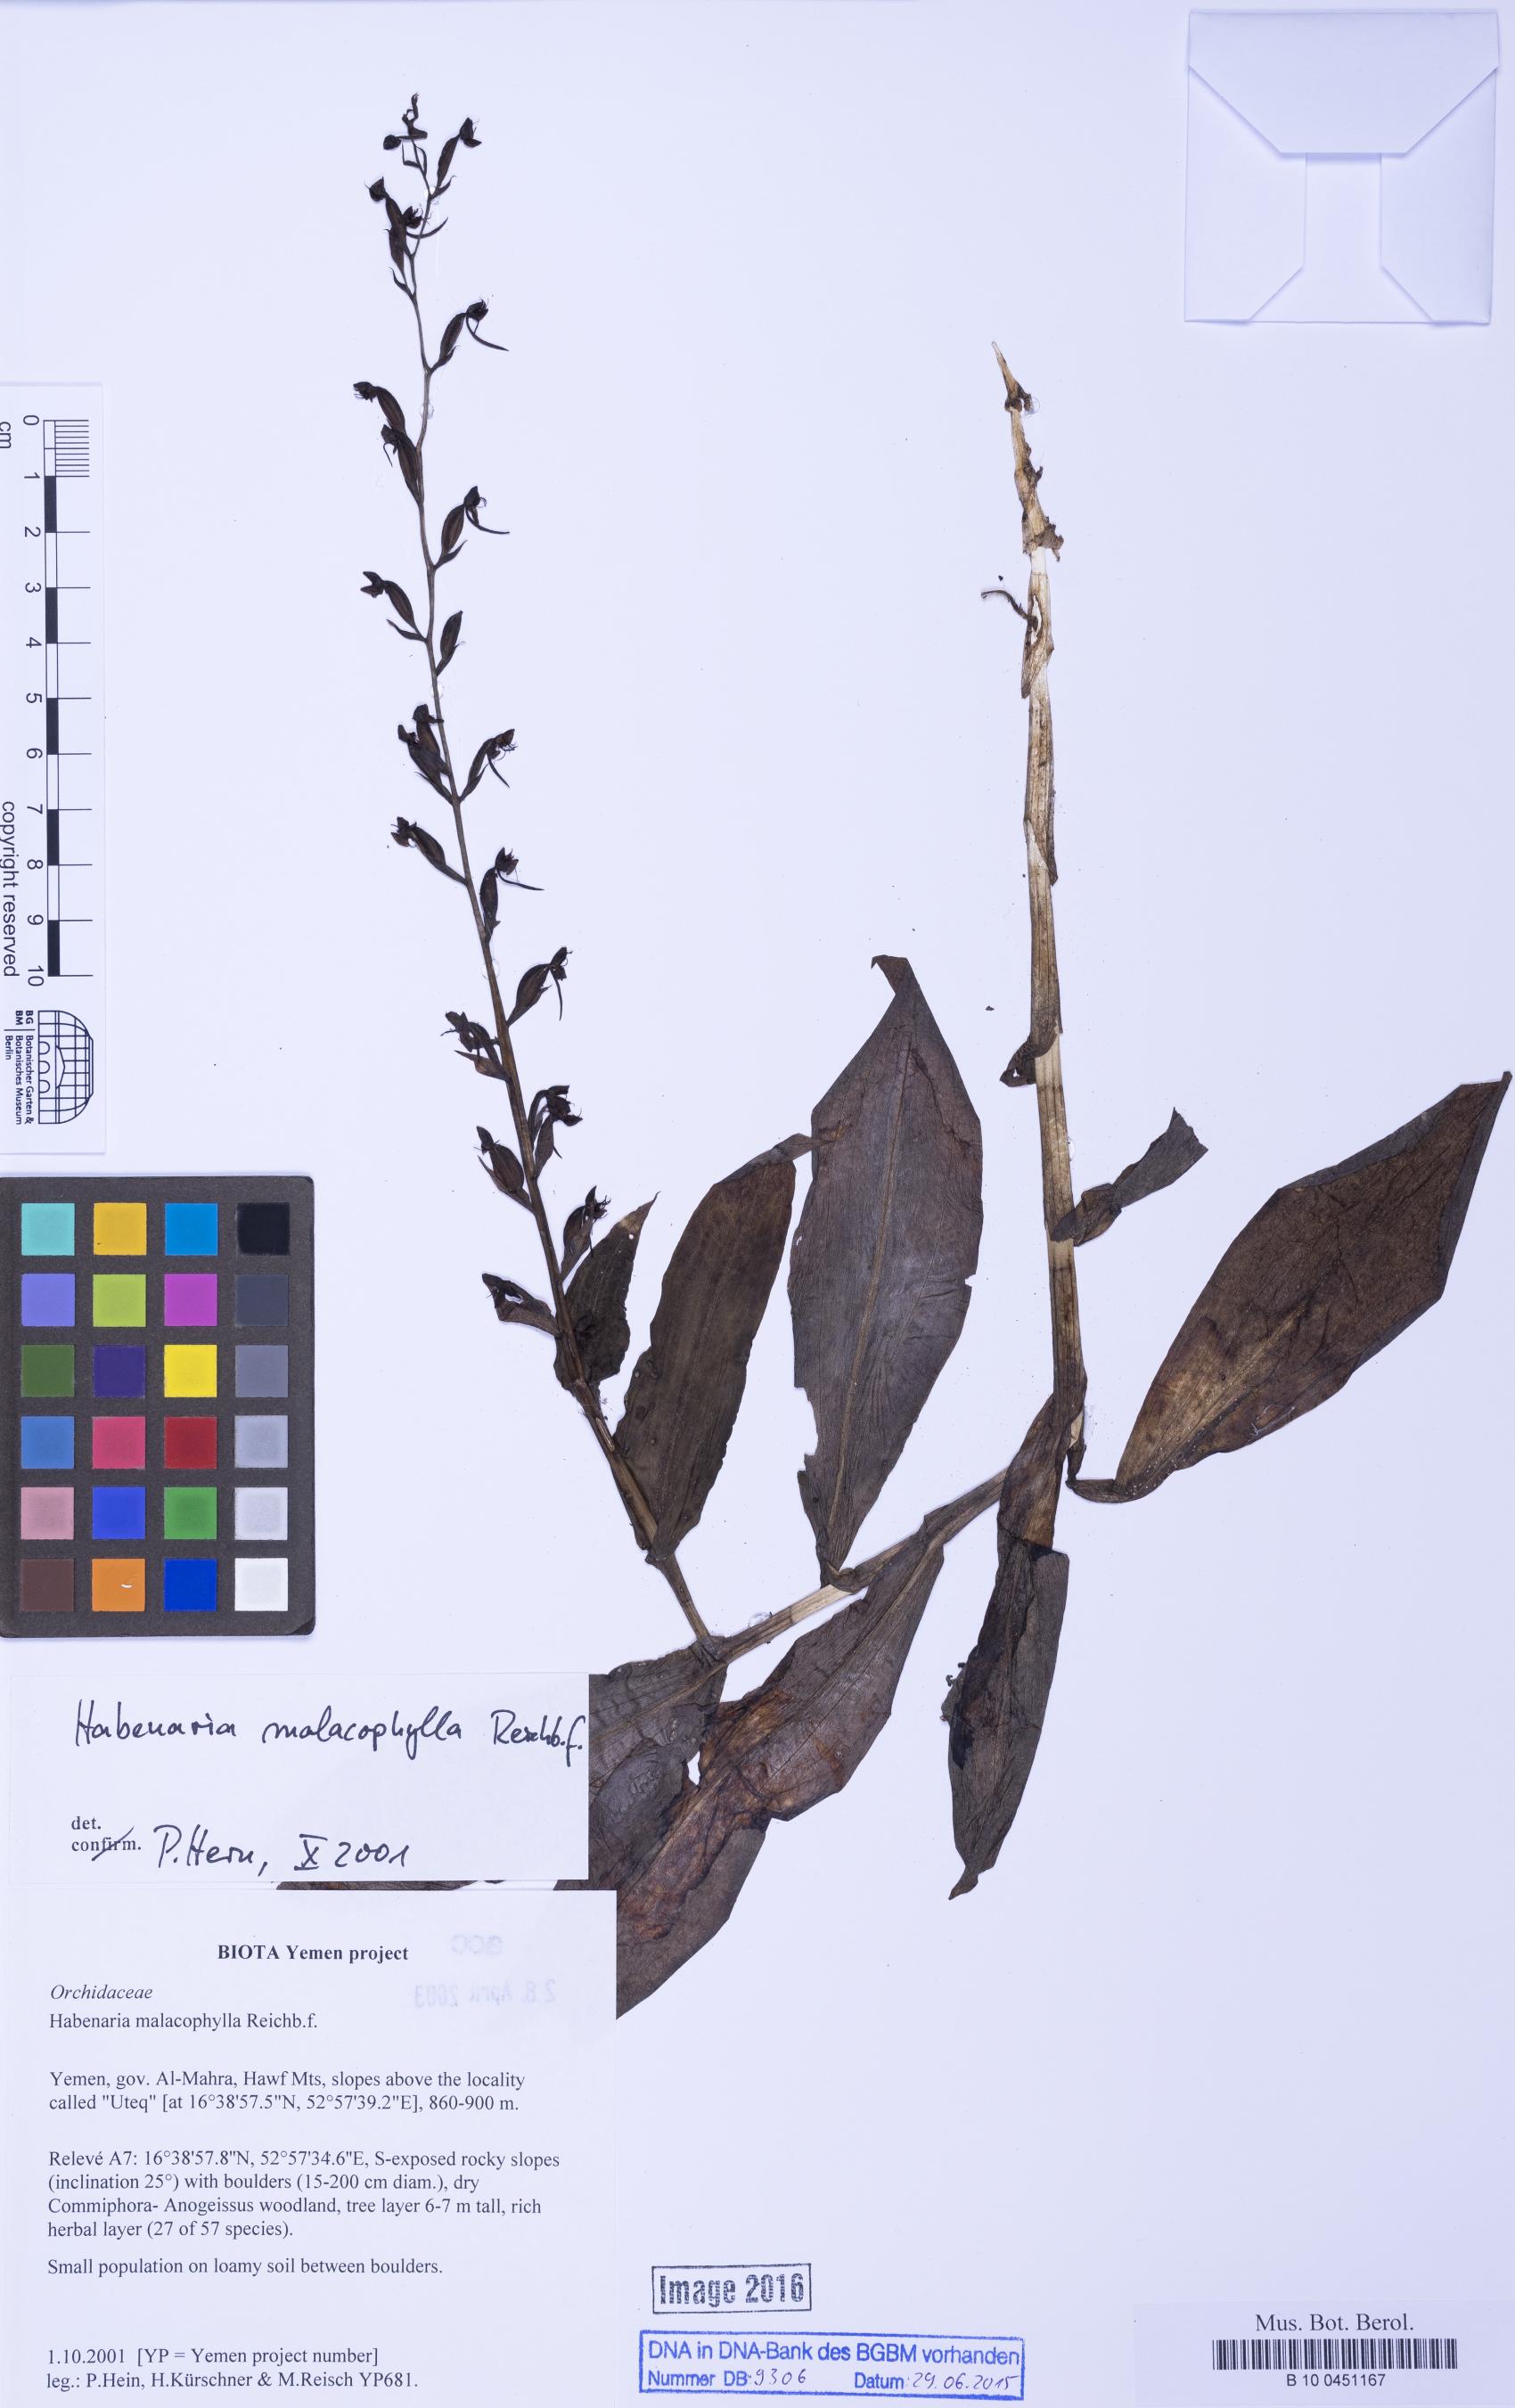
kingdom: Plantae
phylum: Tracheophyta
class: Liliopsida
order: Asparagales
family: Orchidaceae
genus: Habenaria
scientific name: Habenaria malacophylla
